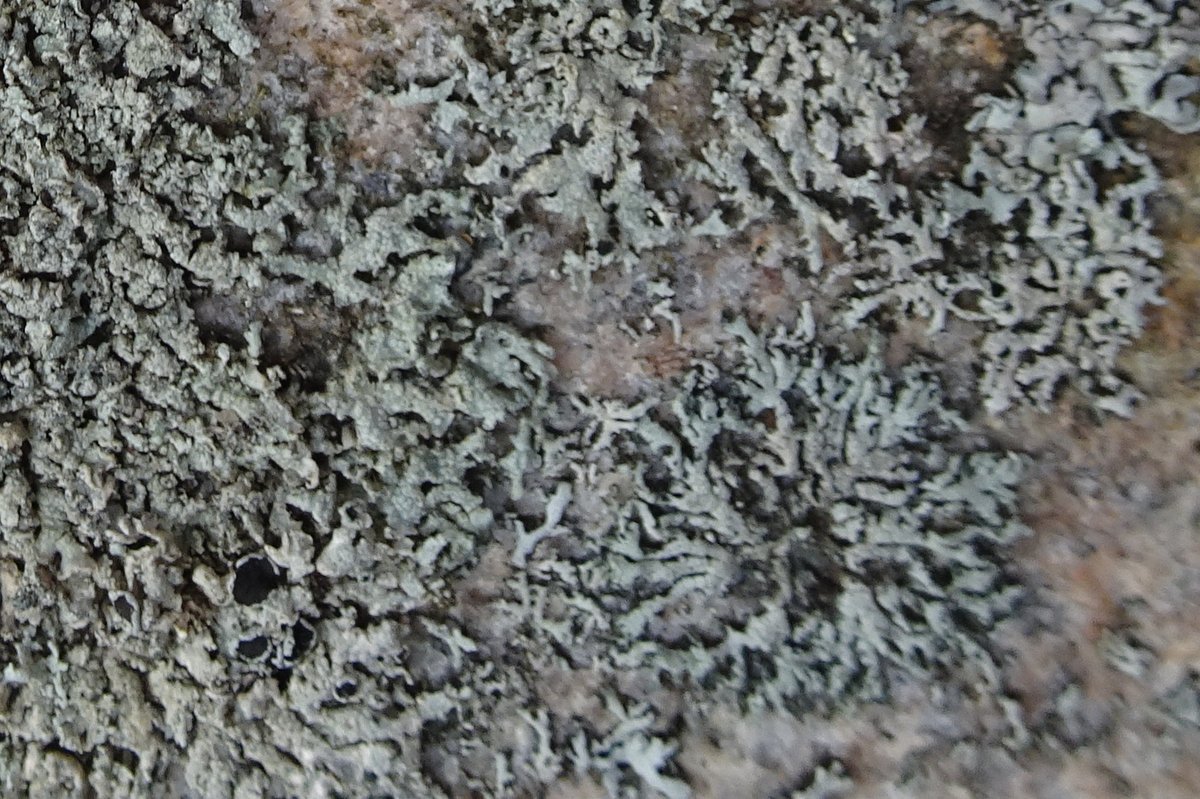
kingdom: Fungi
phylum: Ascomycota
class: Lecanoromycetes
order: Caliciales
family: Physciaceae
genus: Physcia
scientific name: Physcia dubia
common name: fuglestens-rosetlav
